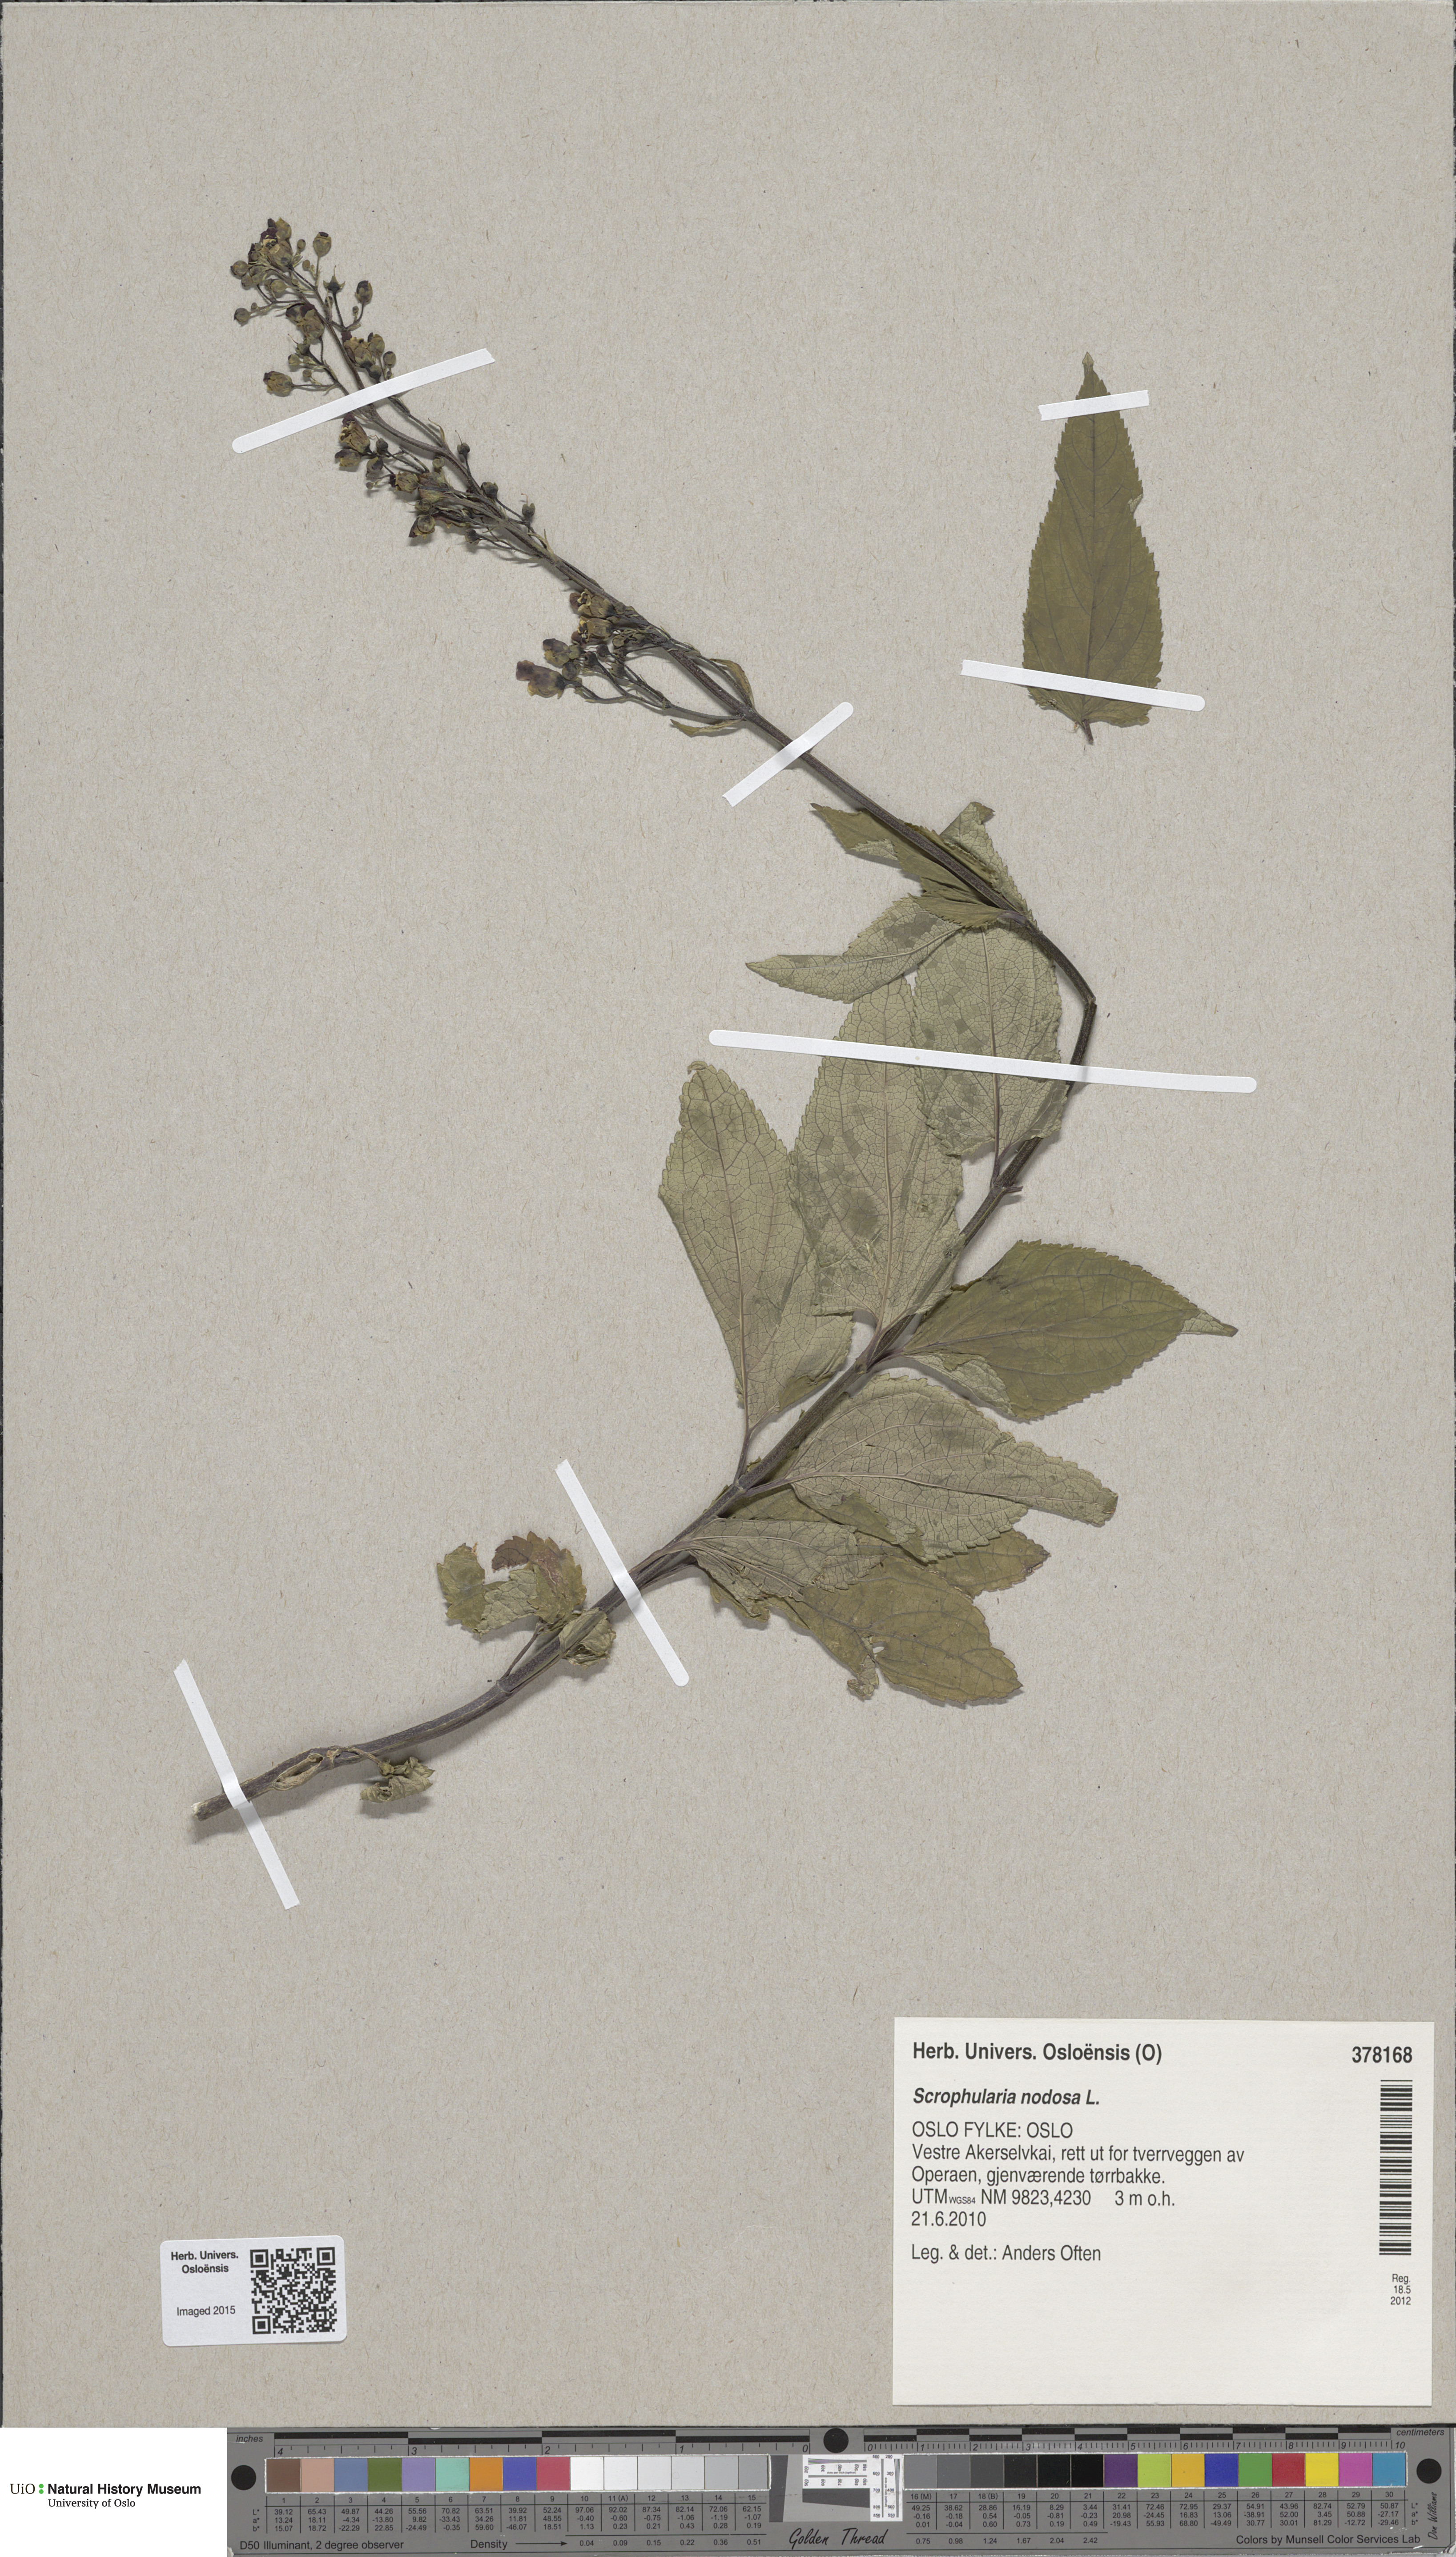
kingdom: Plantae
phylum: Tracheophyta
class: Magnoliopsida
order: Lamiales
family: Scrophulariaceae
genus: Scrophularia
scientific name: Scrophularia nodosa
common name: Common figwort
